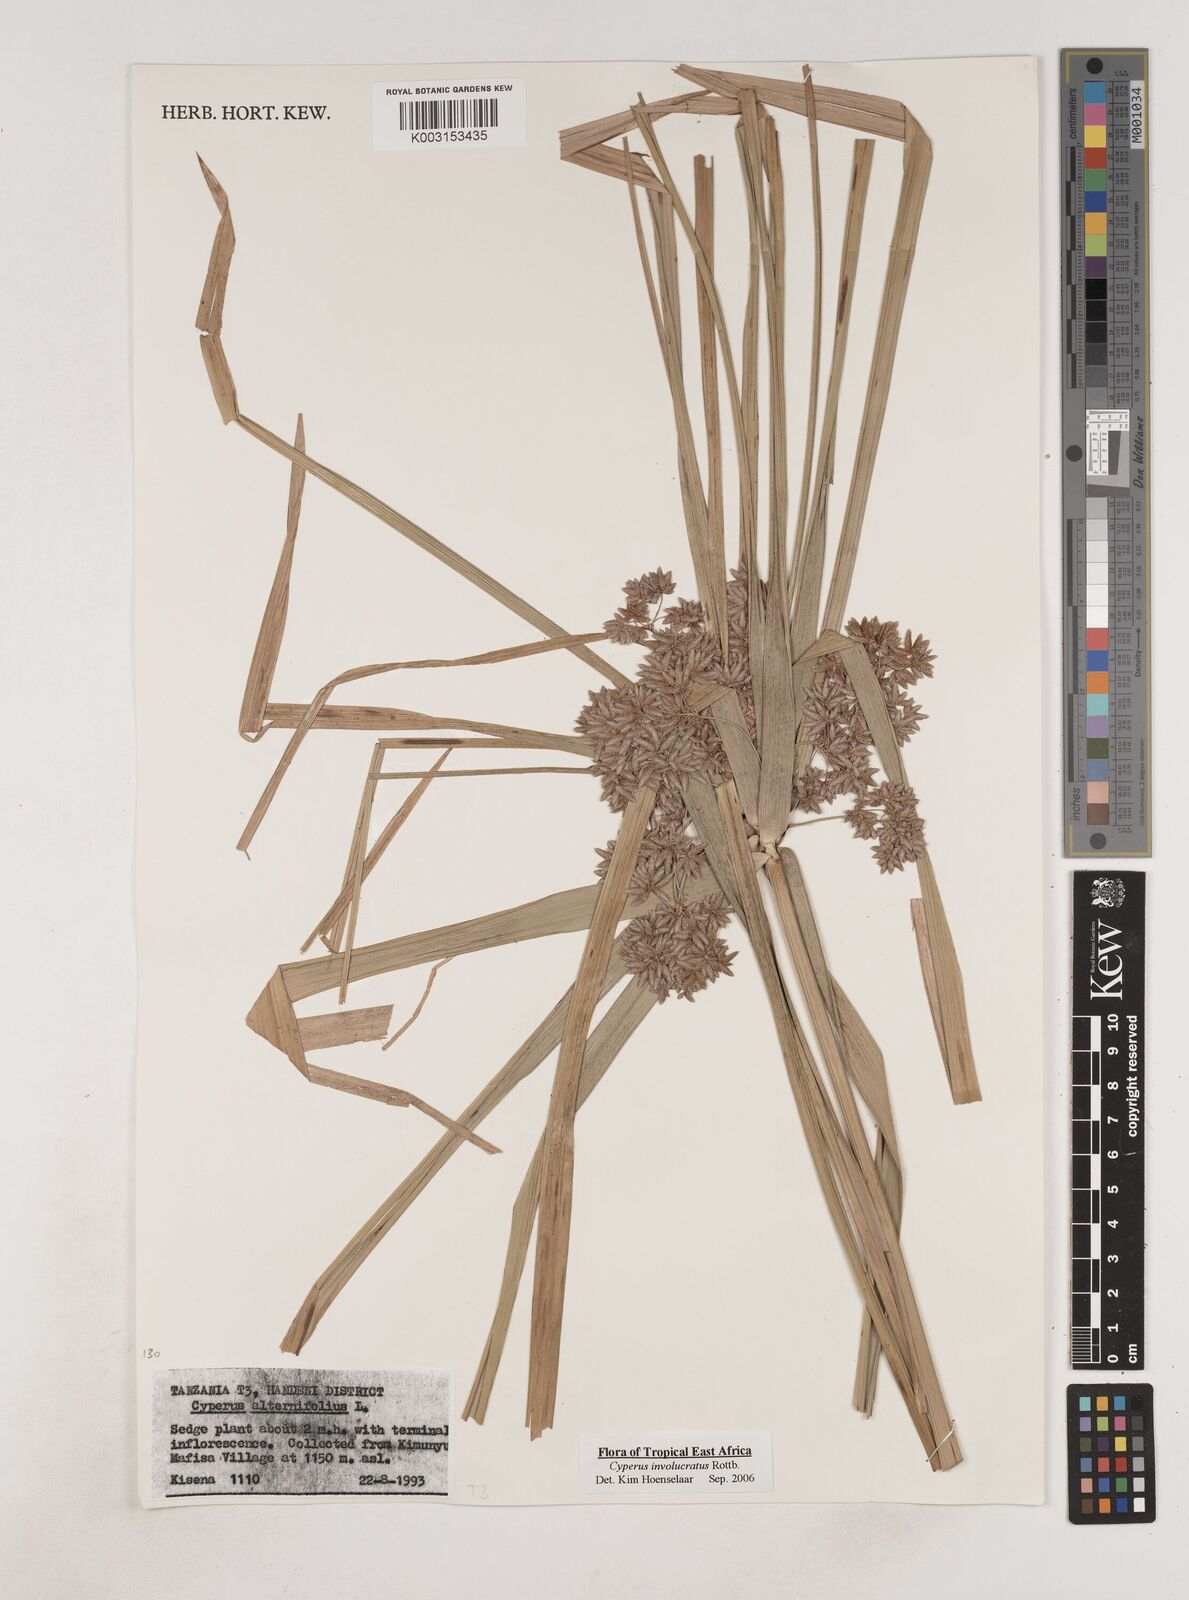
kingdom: Plantae
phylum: Tracheophyta
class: Liliopsida
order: Poales
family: Cyperaceae
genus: Cyperus
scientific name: Cyperus
